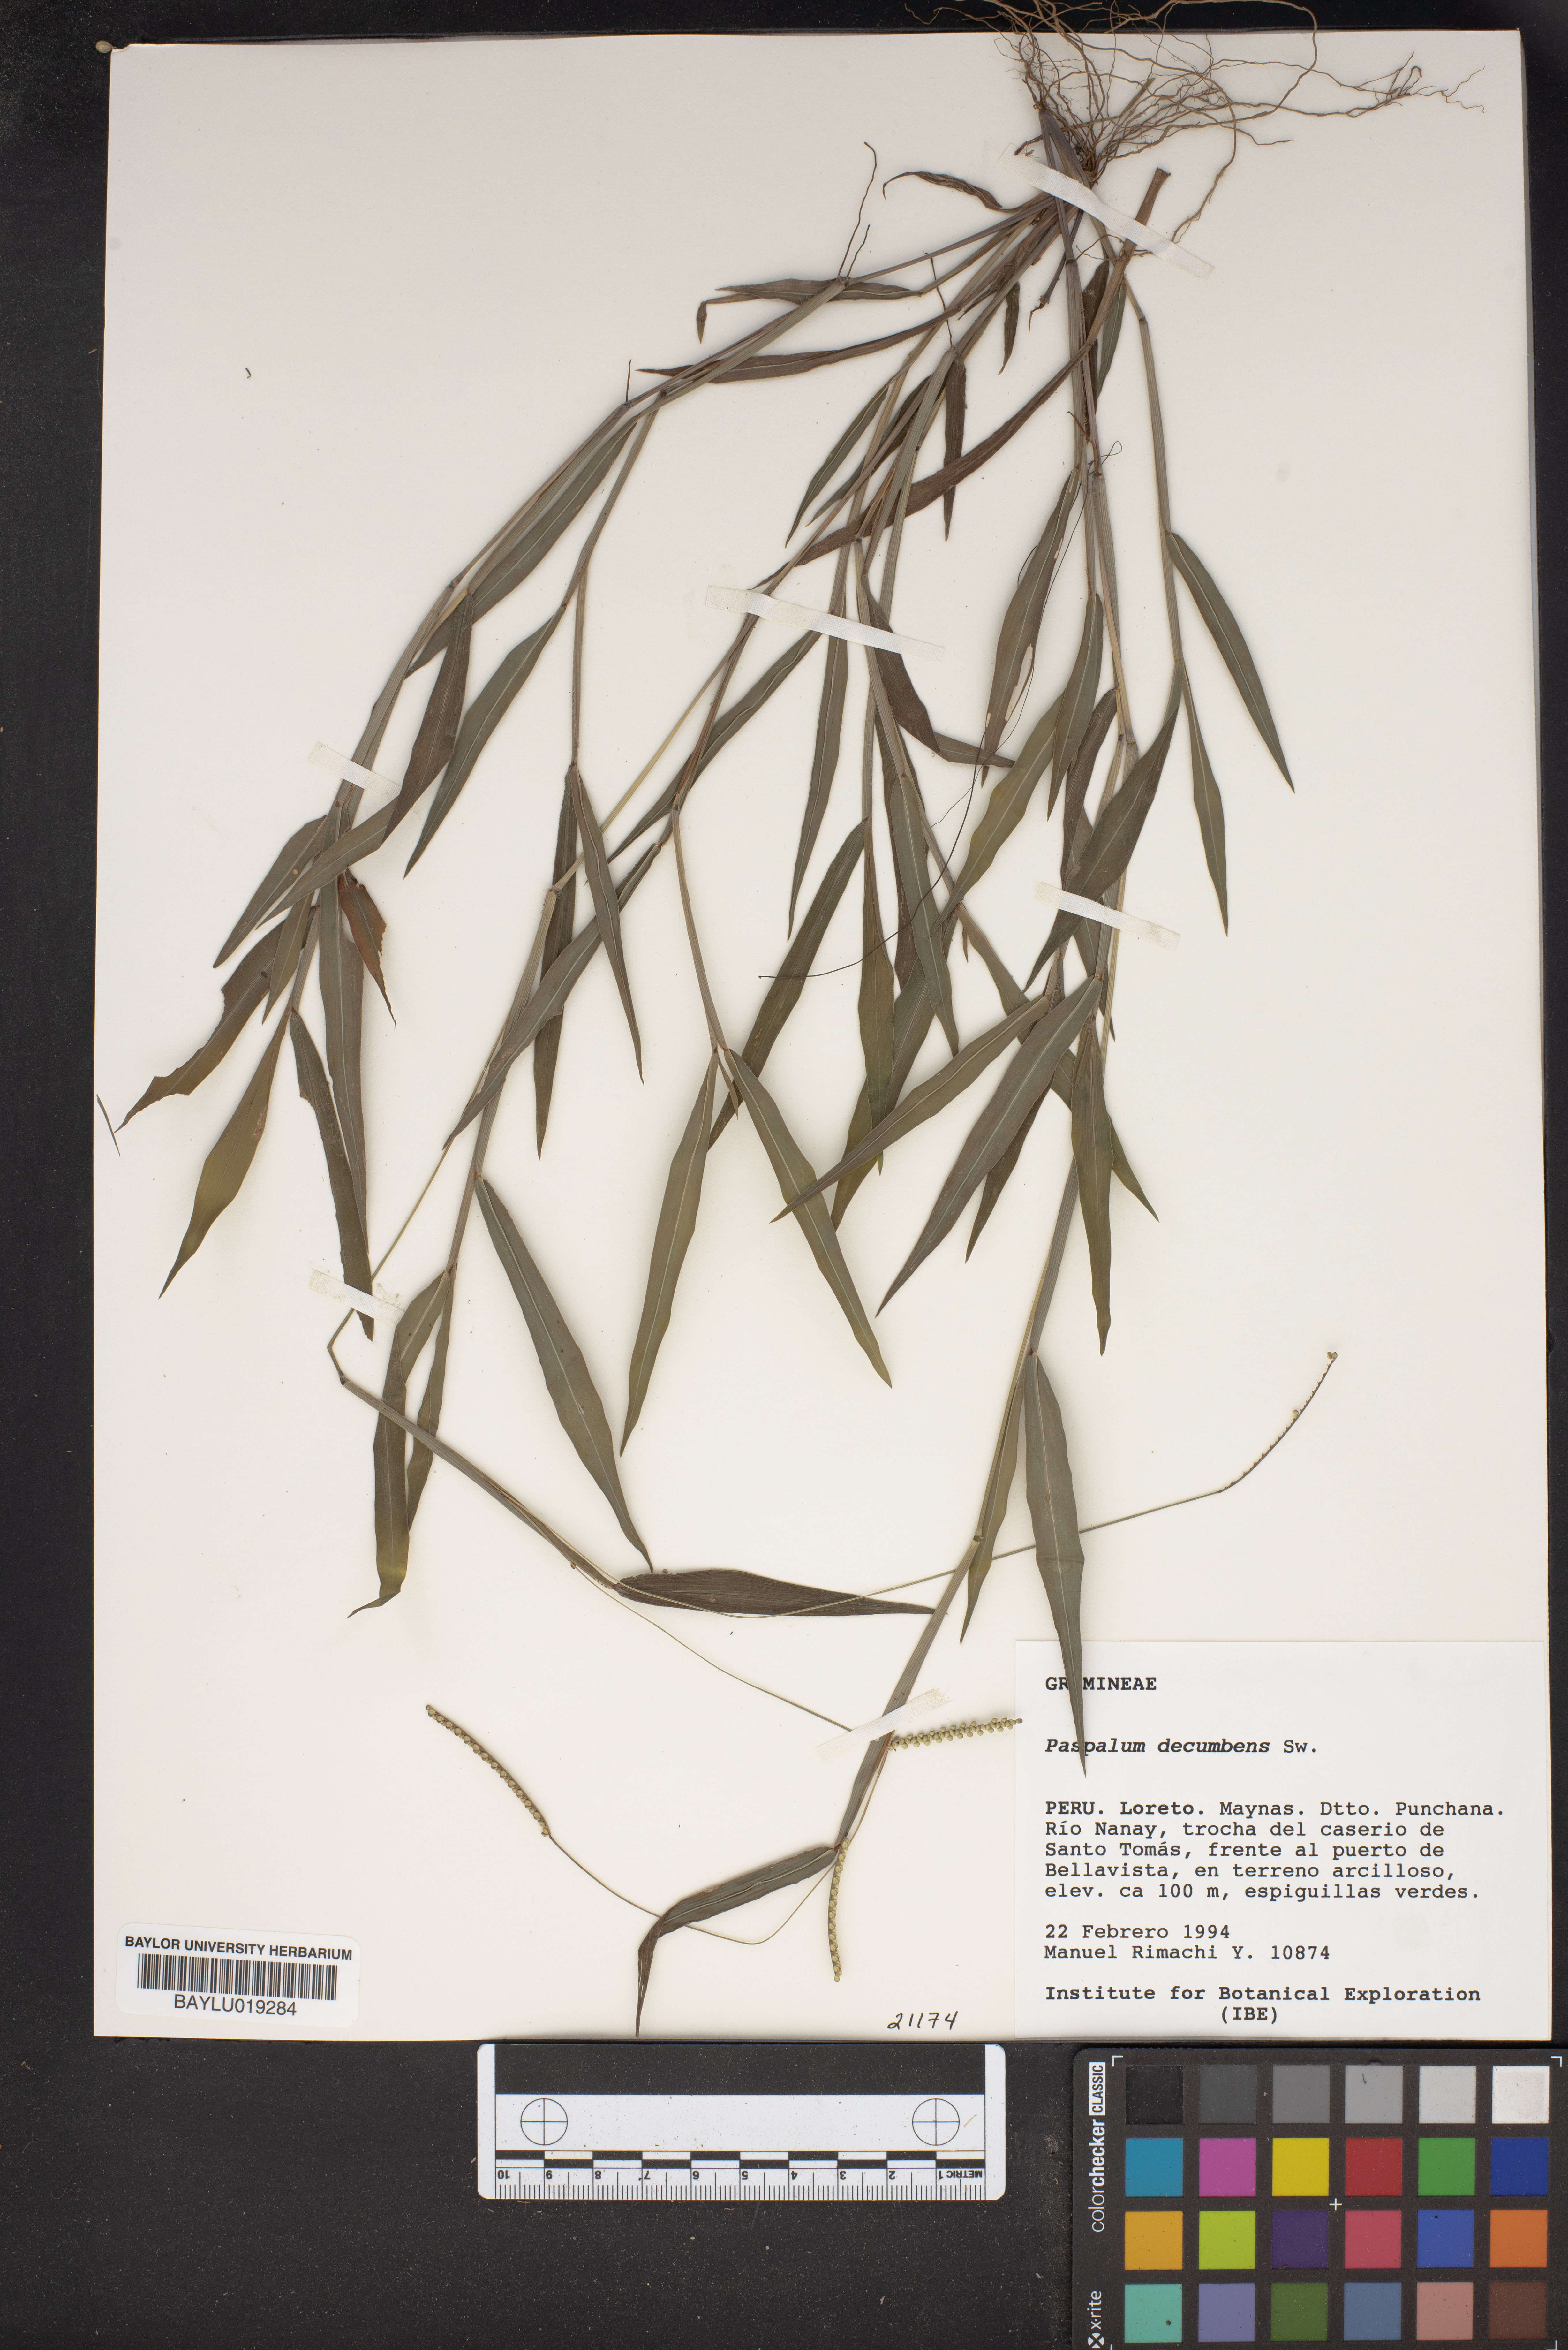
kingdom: Plantae
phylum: Tracheophyta
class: Liliopsida
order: Poales
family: Poaceae
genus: Paspalum
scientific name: Paspalum decumbens
